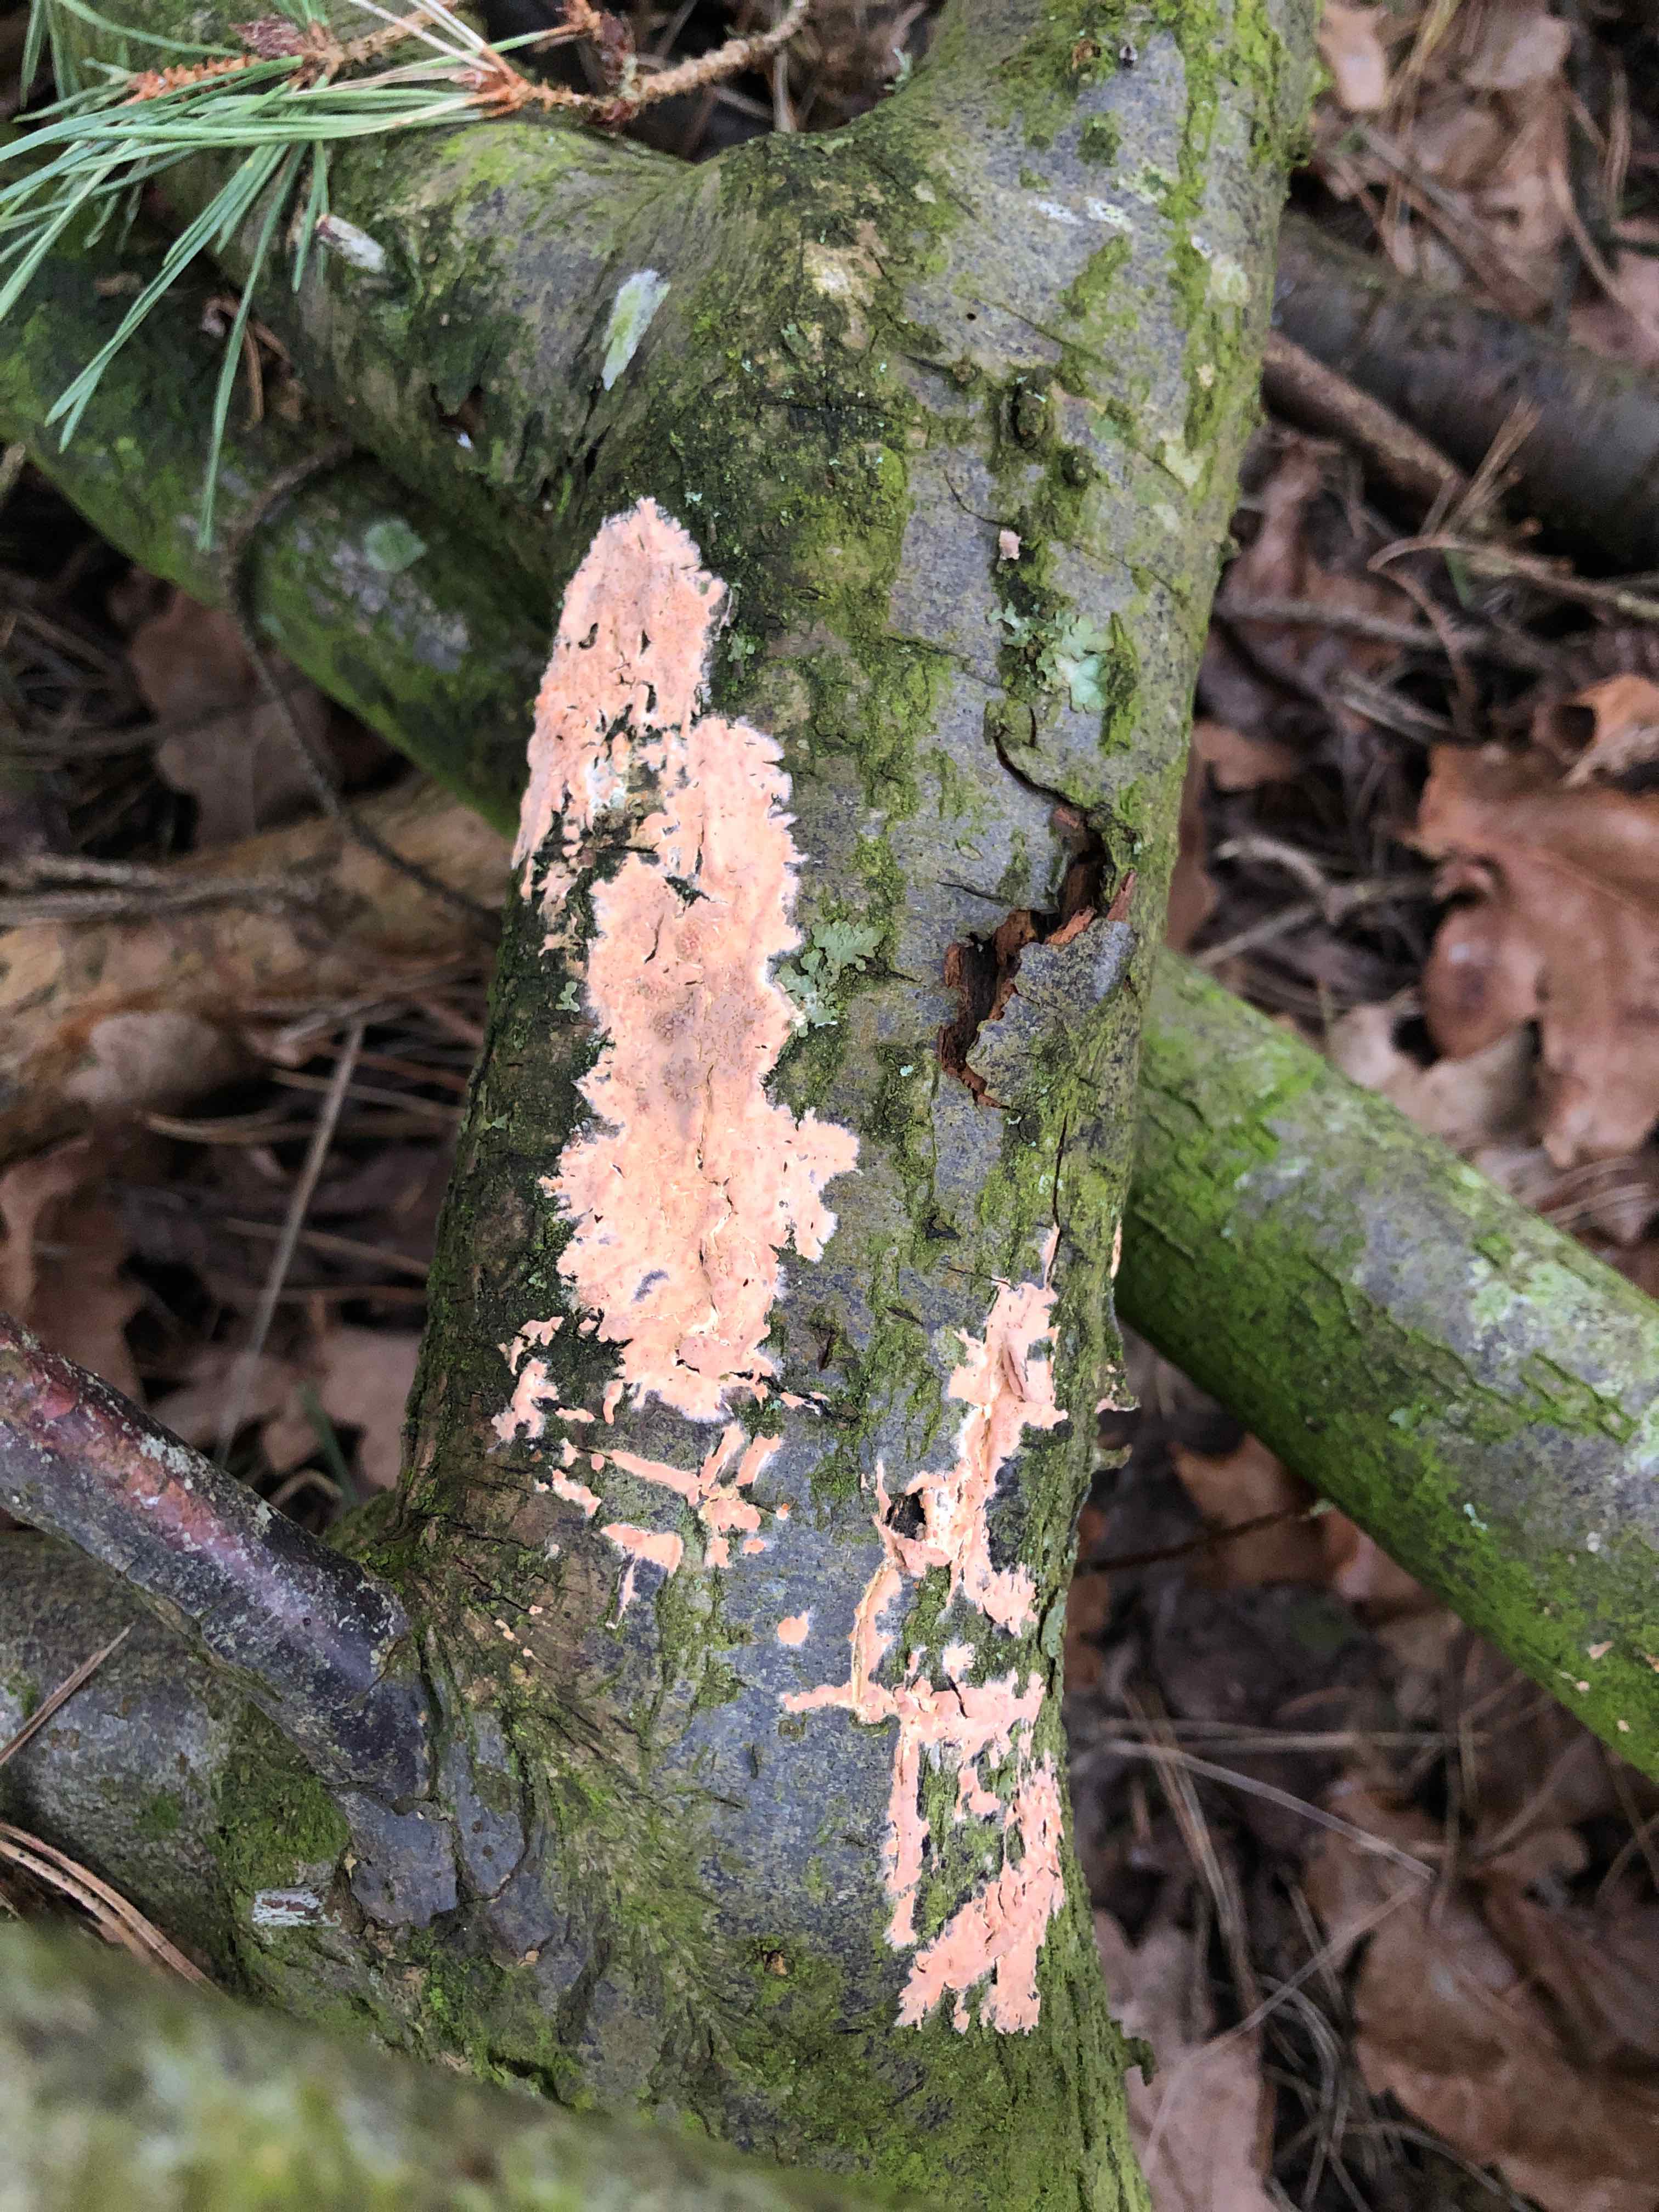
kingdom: Fungi
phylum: Basidiomycota
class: Agaricomycetes
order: Russulales
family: Peniophoraceae
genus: Peniophora
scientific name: Peniophora incarnata
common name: laksefarvet voksskind
